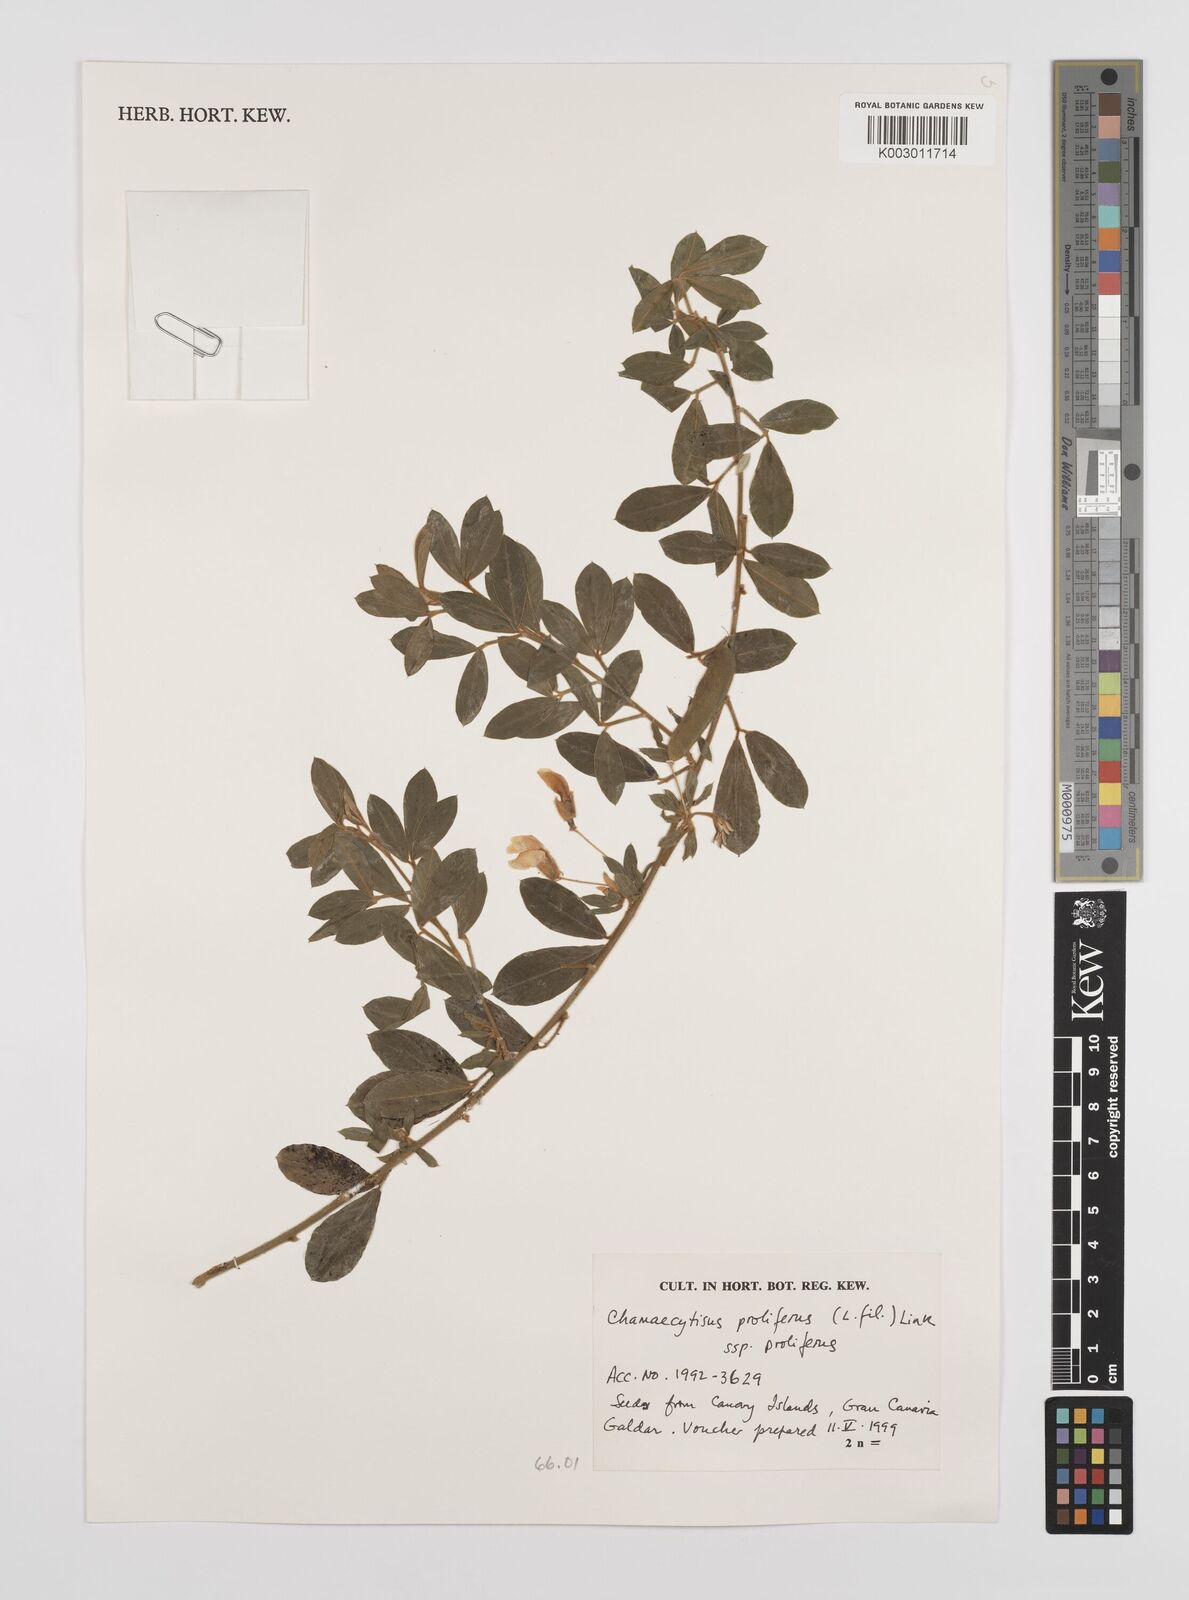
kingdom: Plantae
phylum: Tracheophyta
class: Magnoliopsida
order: Fabales
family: Fabaceae
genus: Chamaecytisus
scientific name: Chamaecytisus prolifer
